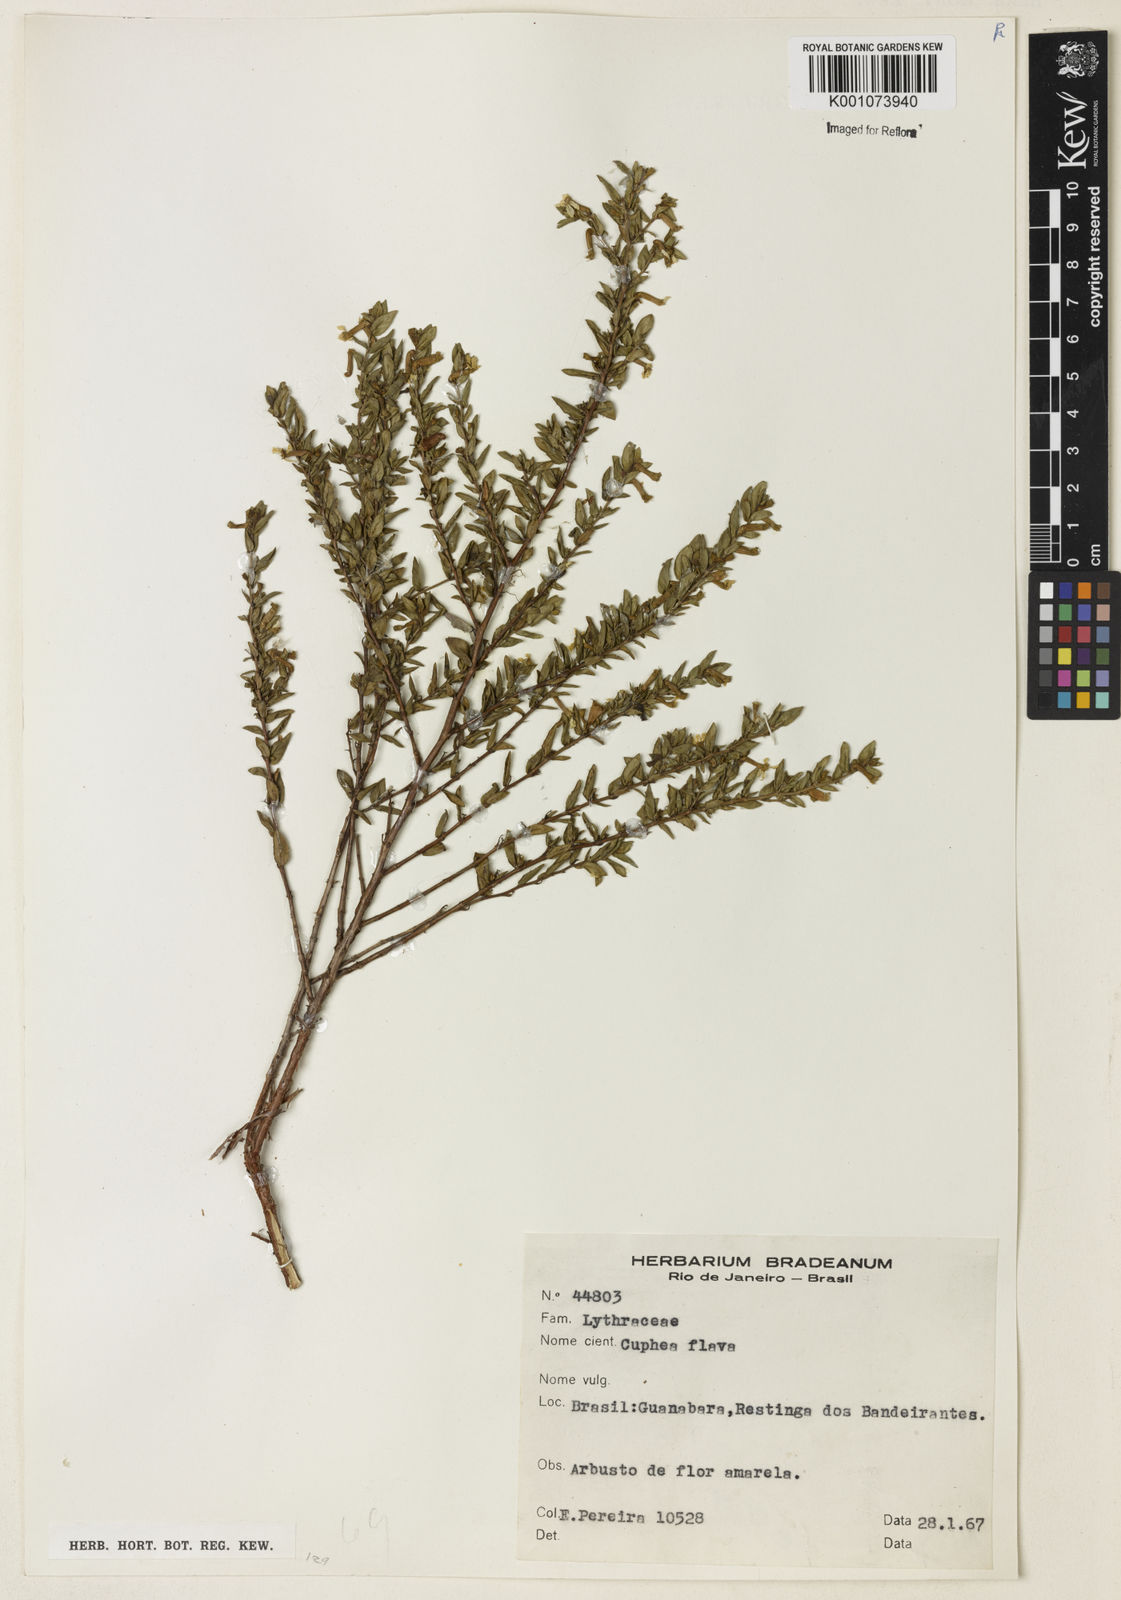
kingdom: Plantae
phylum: Tracheophyta
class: Magnoliopsida
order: Myrtales
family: Lythraceae
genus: Cuphea
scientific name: Cuphea flava
